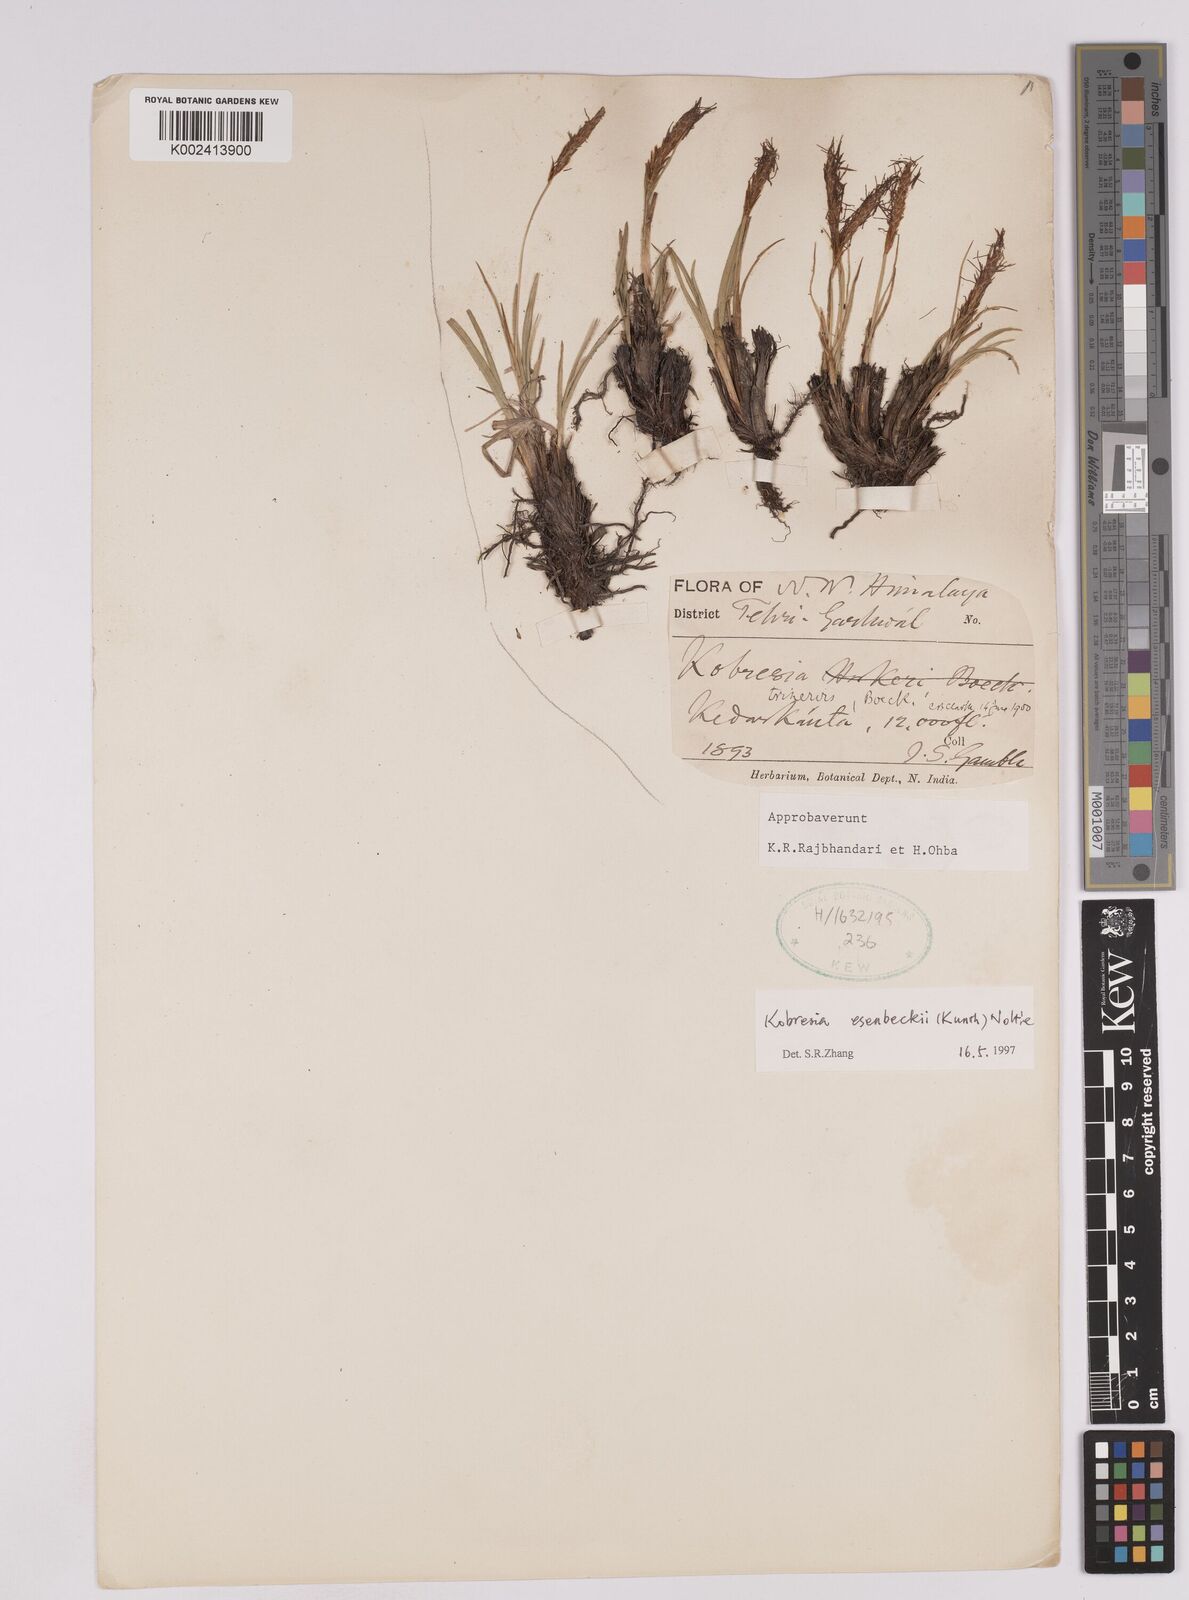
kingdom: Plantae
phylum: Tracheophyta
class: Liliopsida
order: Poales
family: Cyperaceae
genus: Carex
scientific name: Carex esenbeckii
